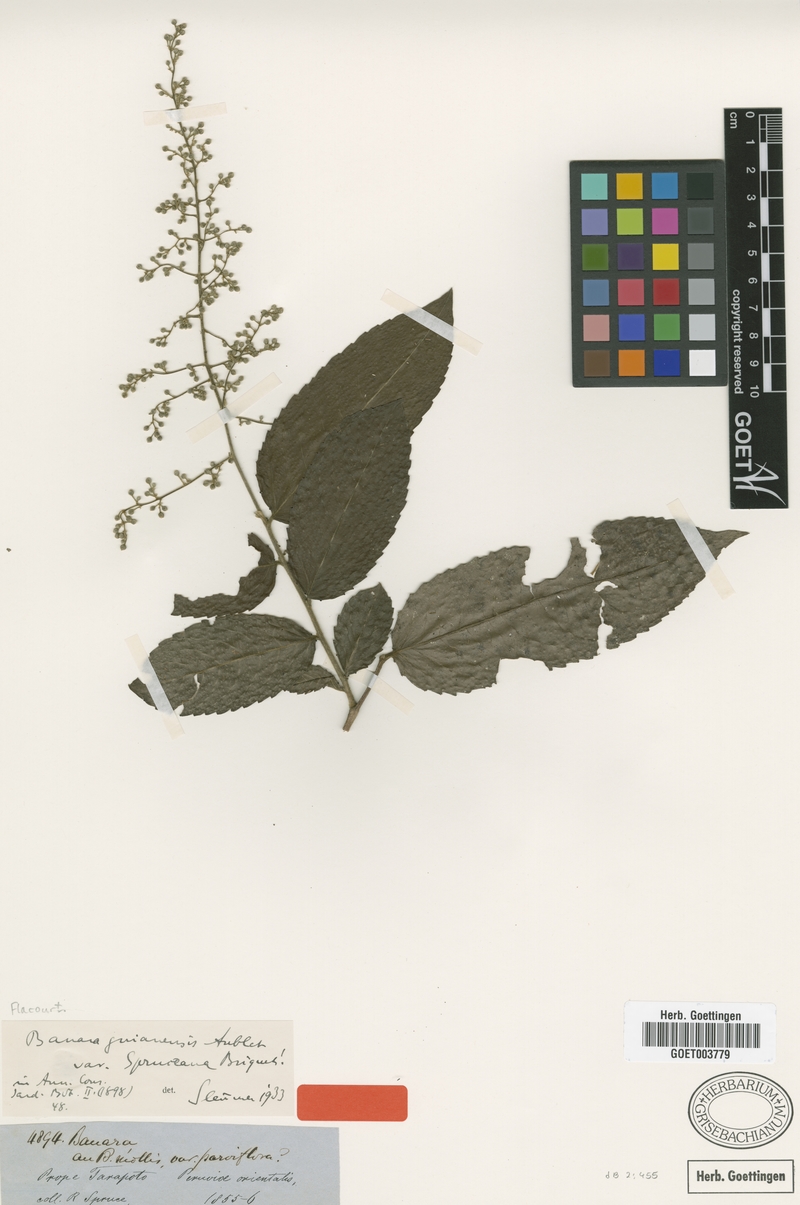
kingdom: Plantae
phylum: Tracheophyta
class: Magnoliopsida
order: Malpighiales
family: Salicaceae
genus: Banara
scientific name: Banara guianensis
